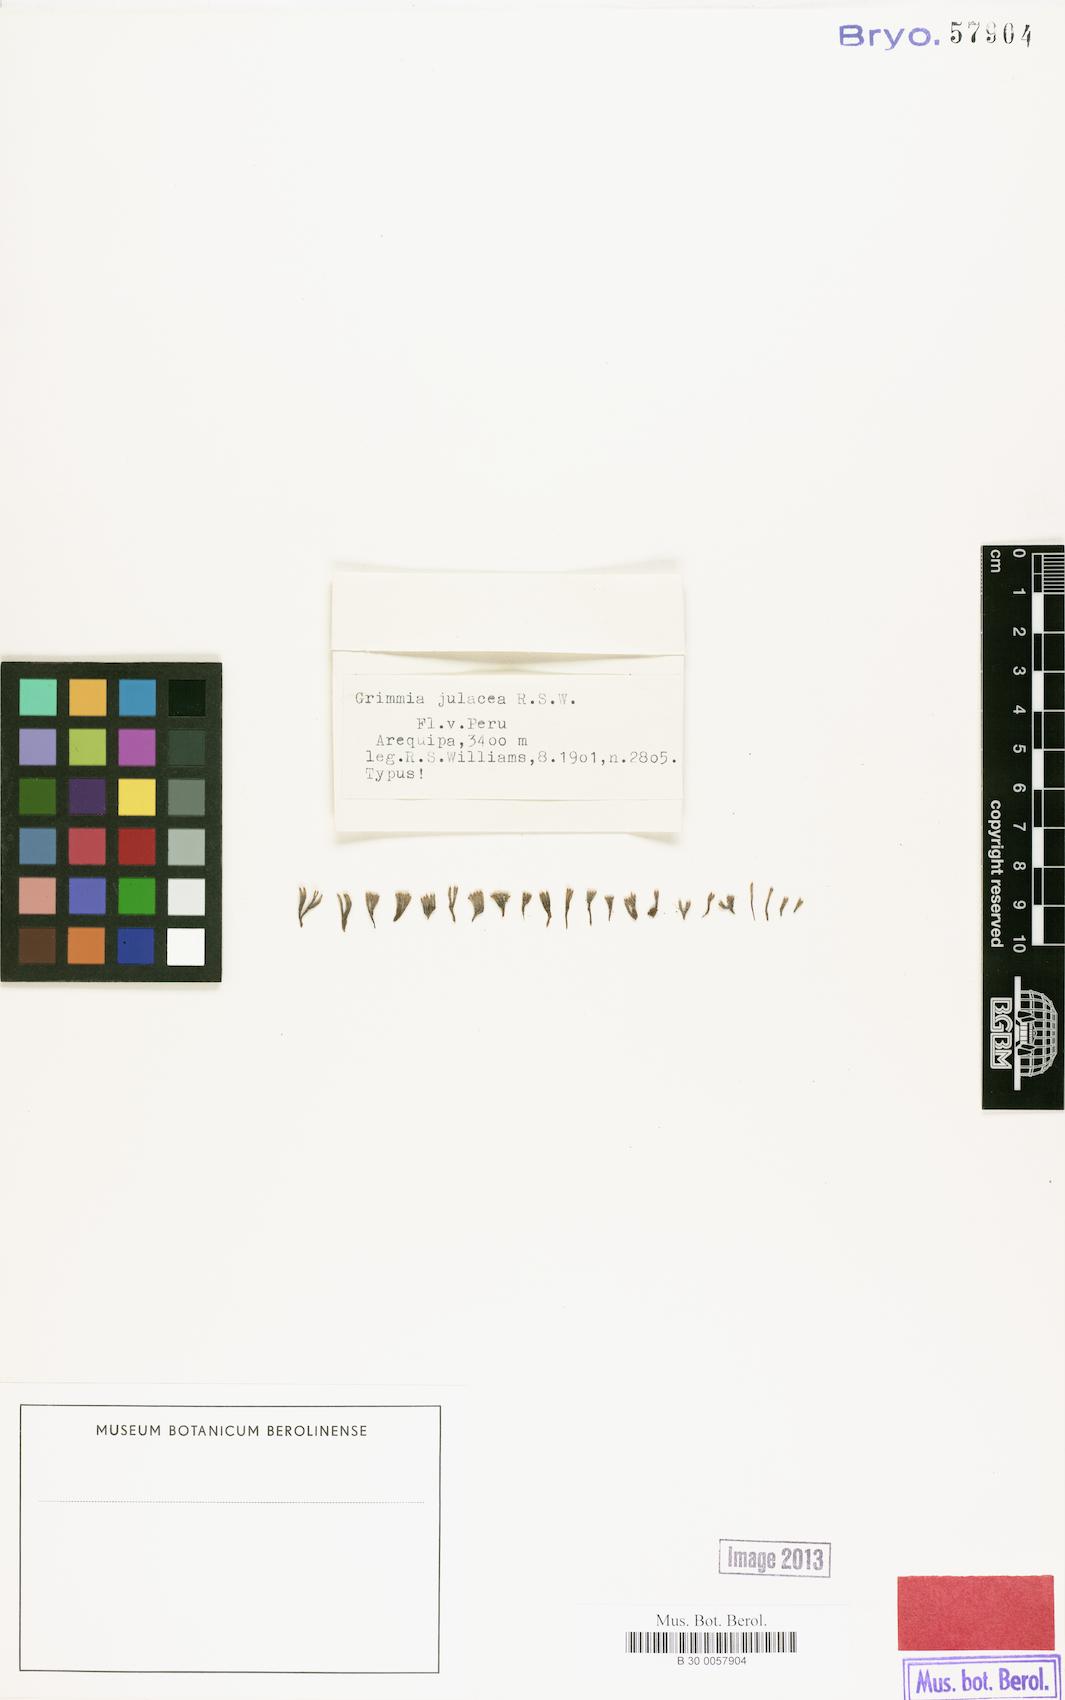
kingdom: Plantae
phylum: Bryophyta
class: Bryopsida
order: Hypnales
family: Leucodontaceae
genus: Leucodon
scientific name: Leucodon julaceus
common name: Smooth hook moss
